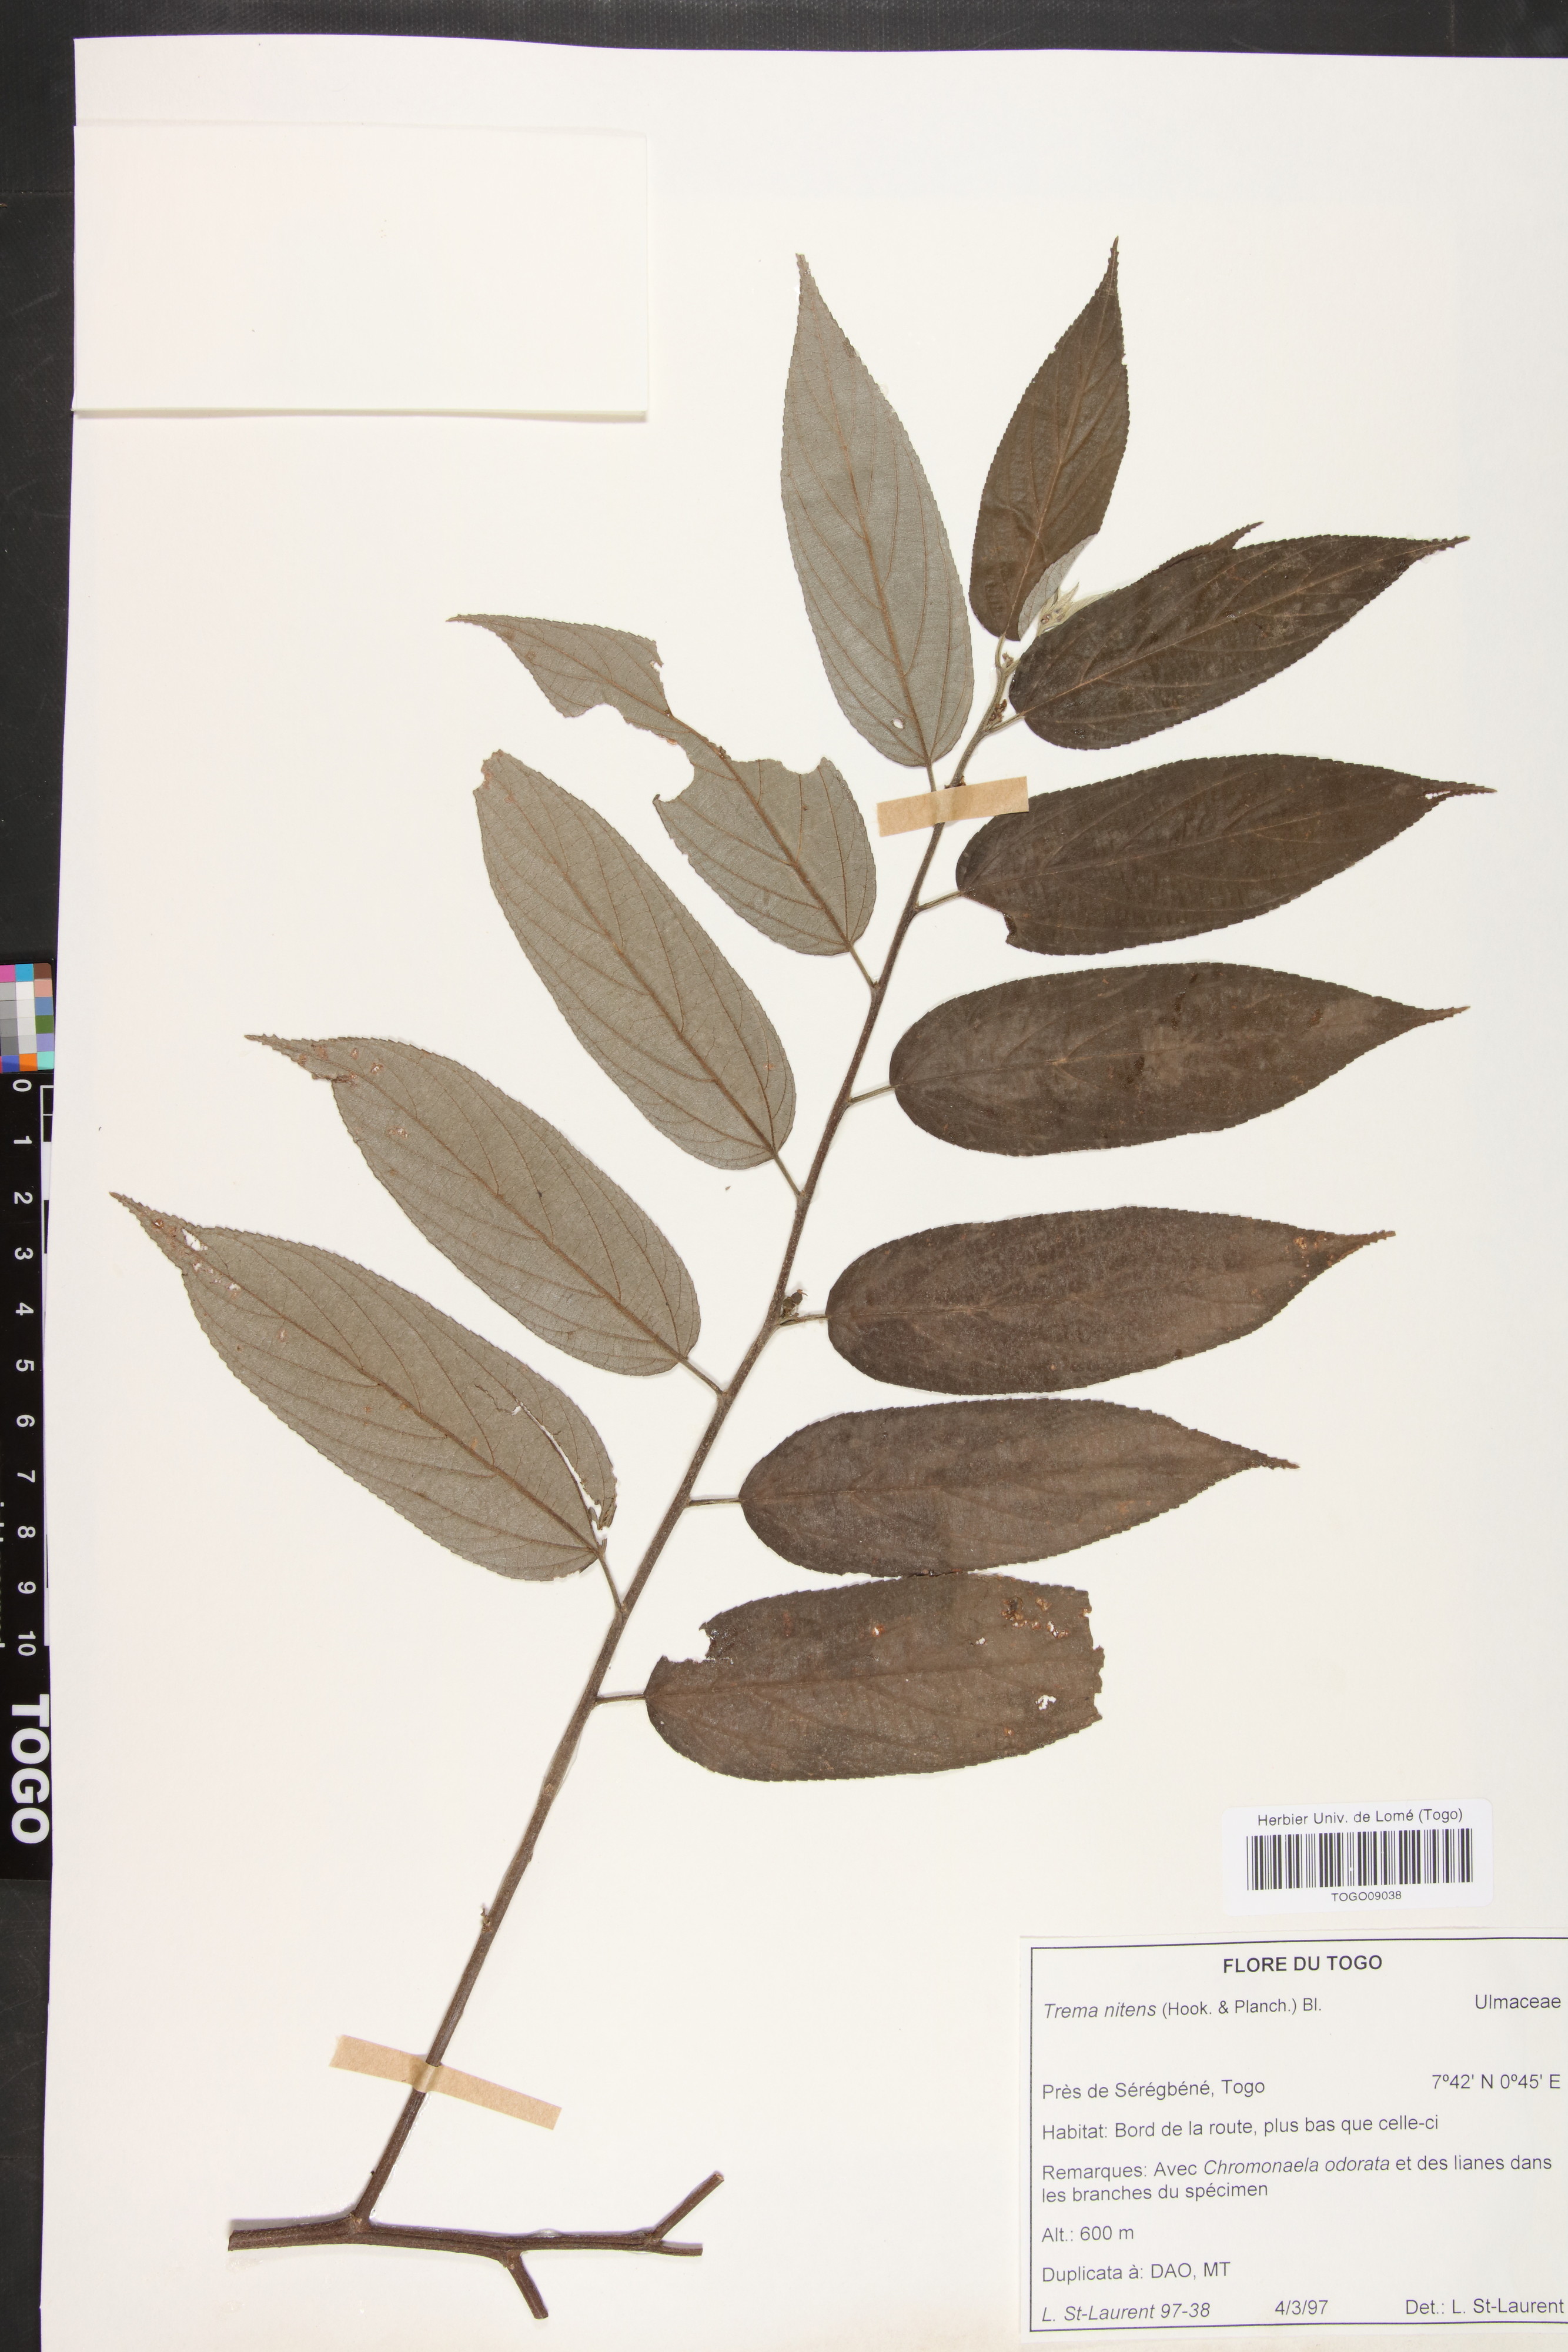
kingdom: Plantae
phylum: Tracheophyta
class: Magnoliopsida
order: Rosales
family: Cannabaceae
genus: Trema
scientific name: Trema orientale
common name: Indian charcoal tree
